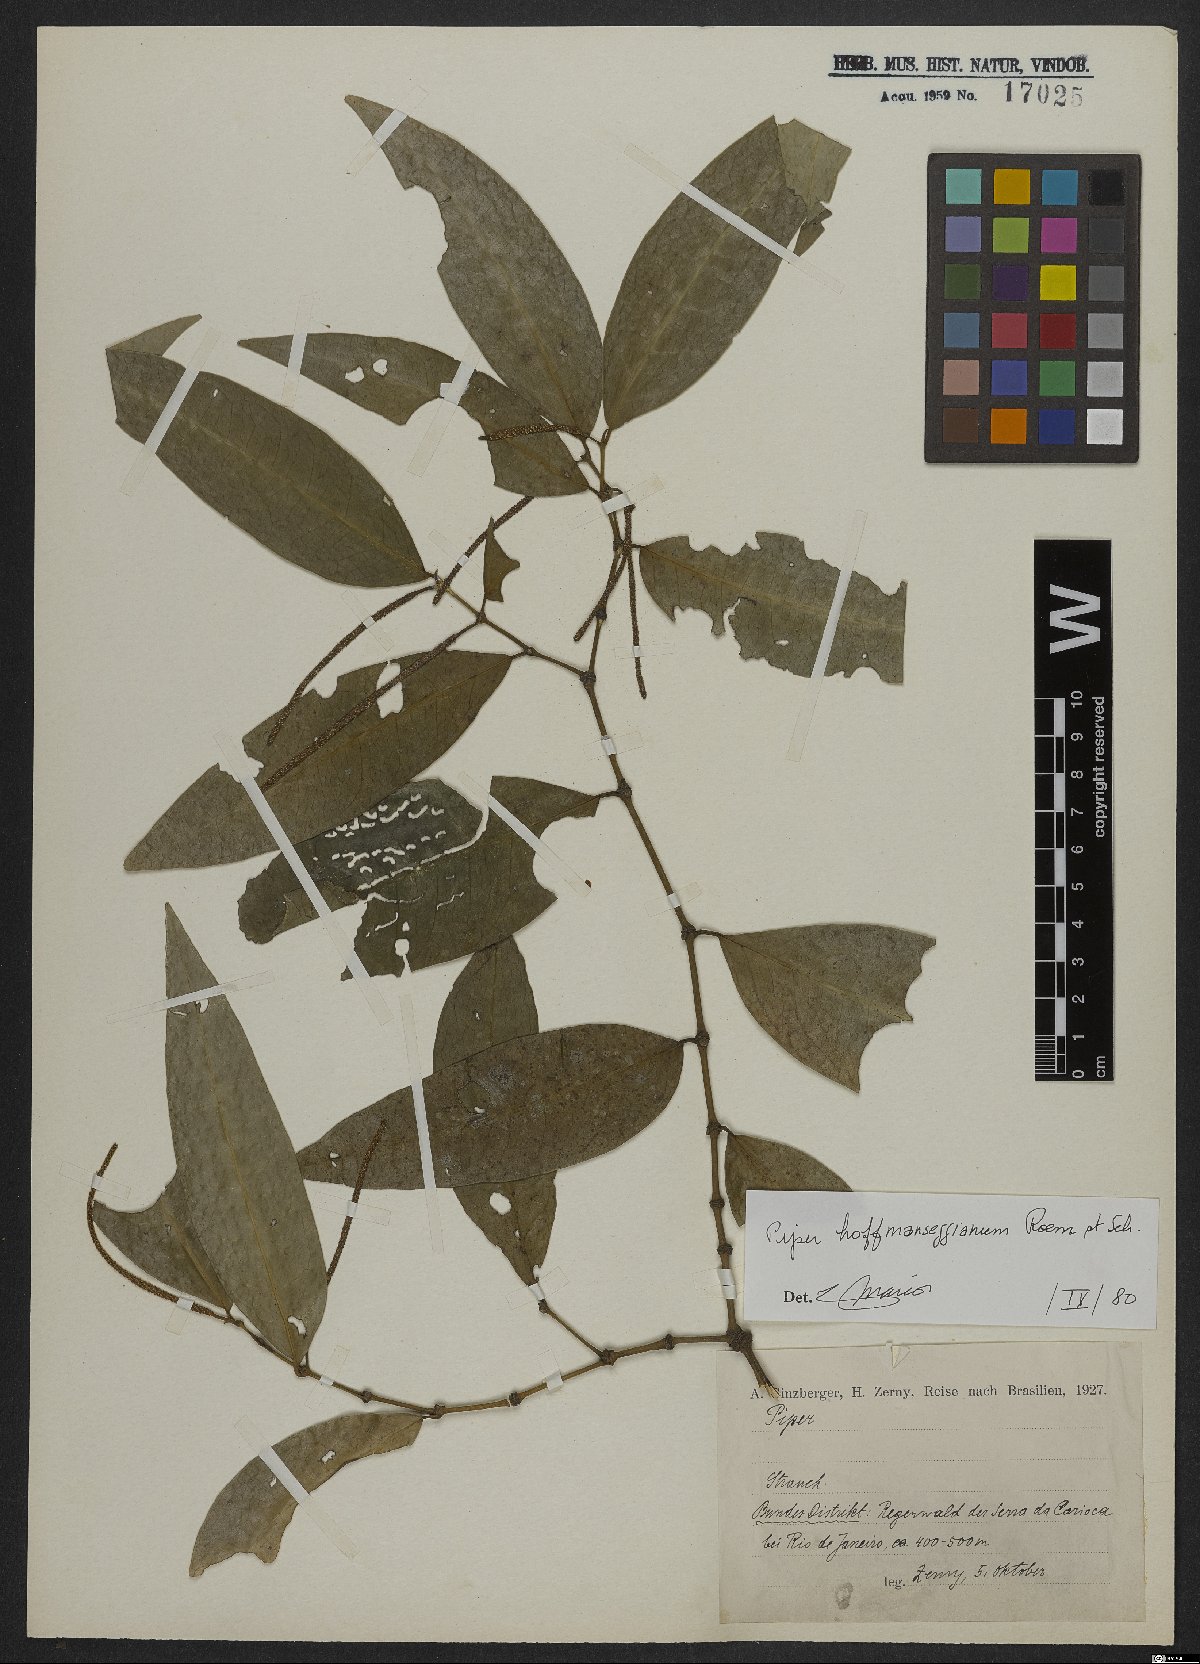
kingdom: Plantae
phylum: Tracheophyta
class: Magnoliopsida
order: Piperales
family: Piperaceae
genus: Piper
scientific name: Piper hoffmannseggianum
